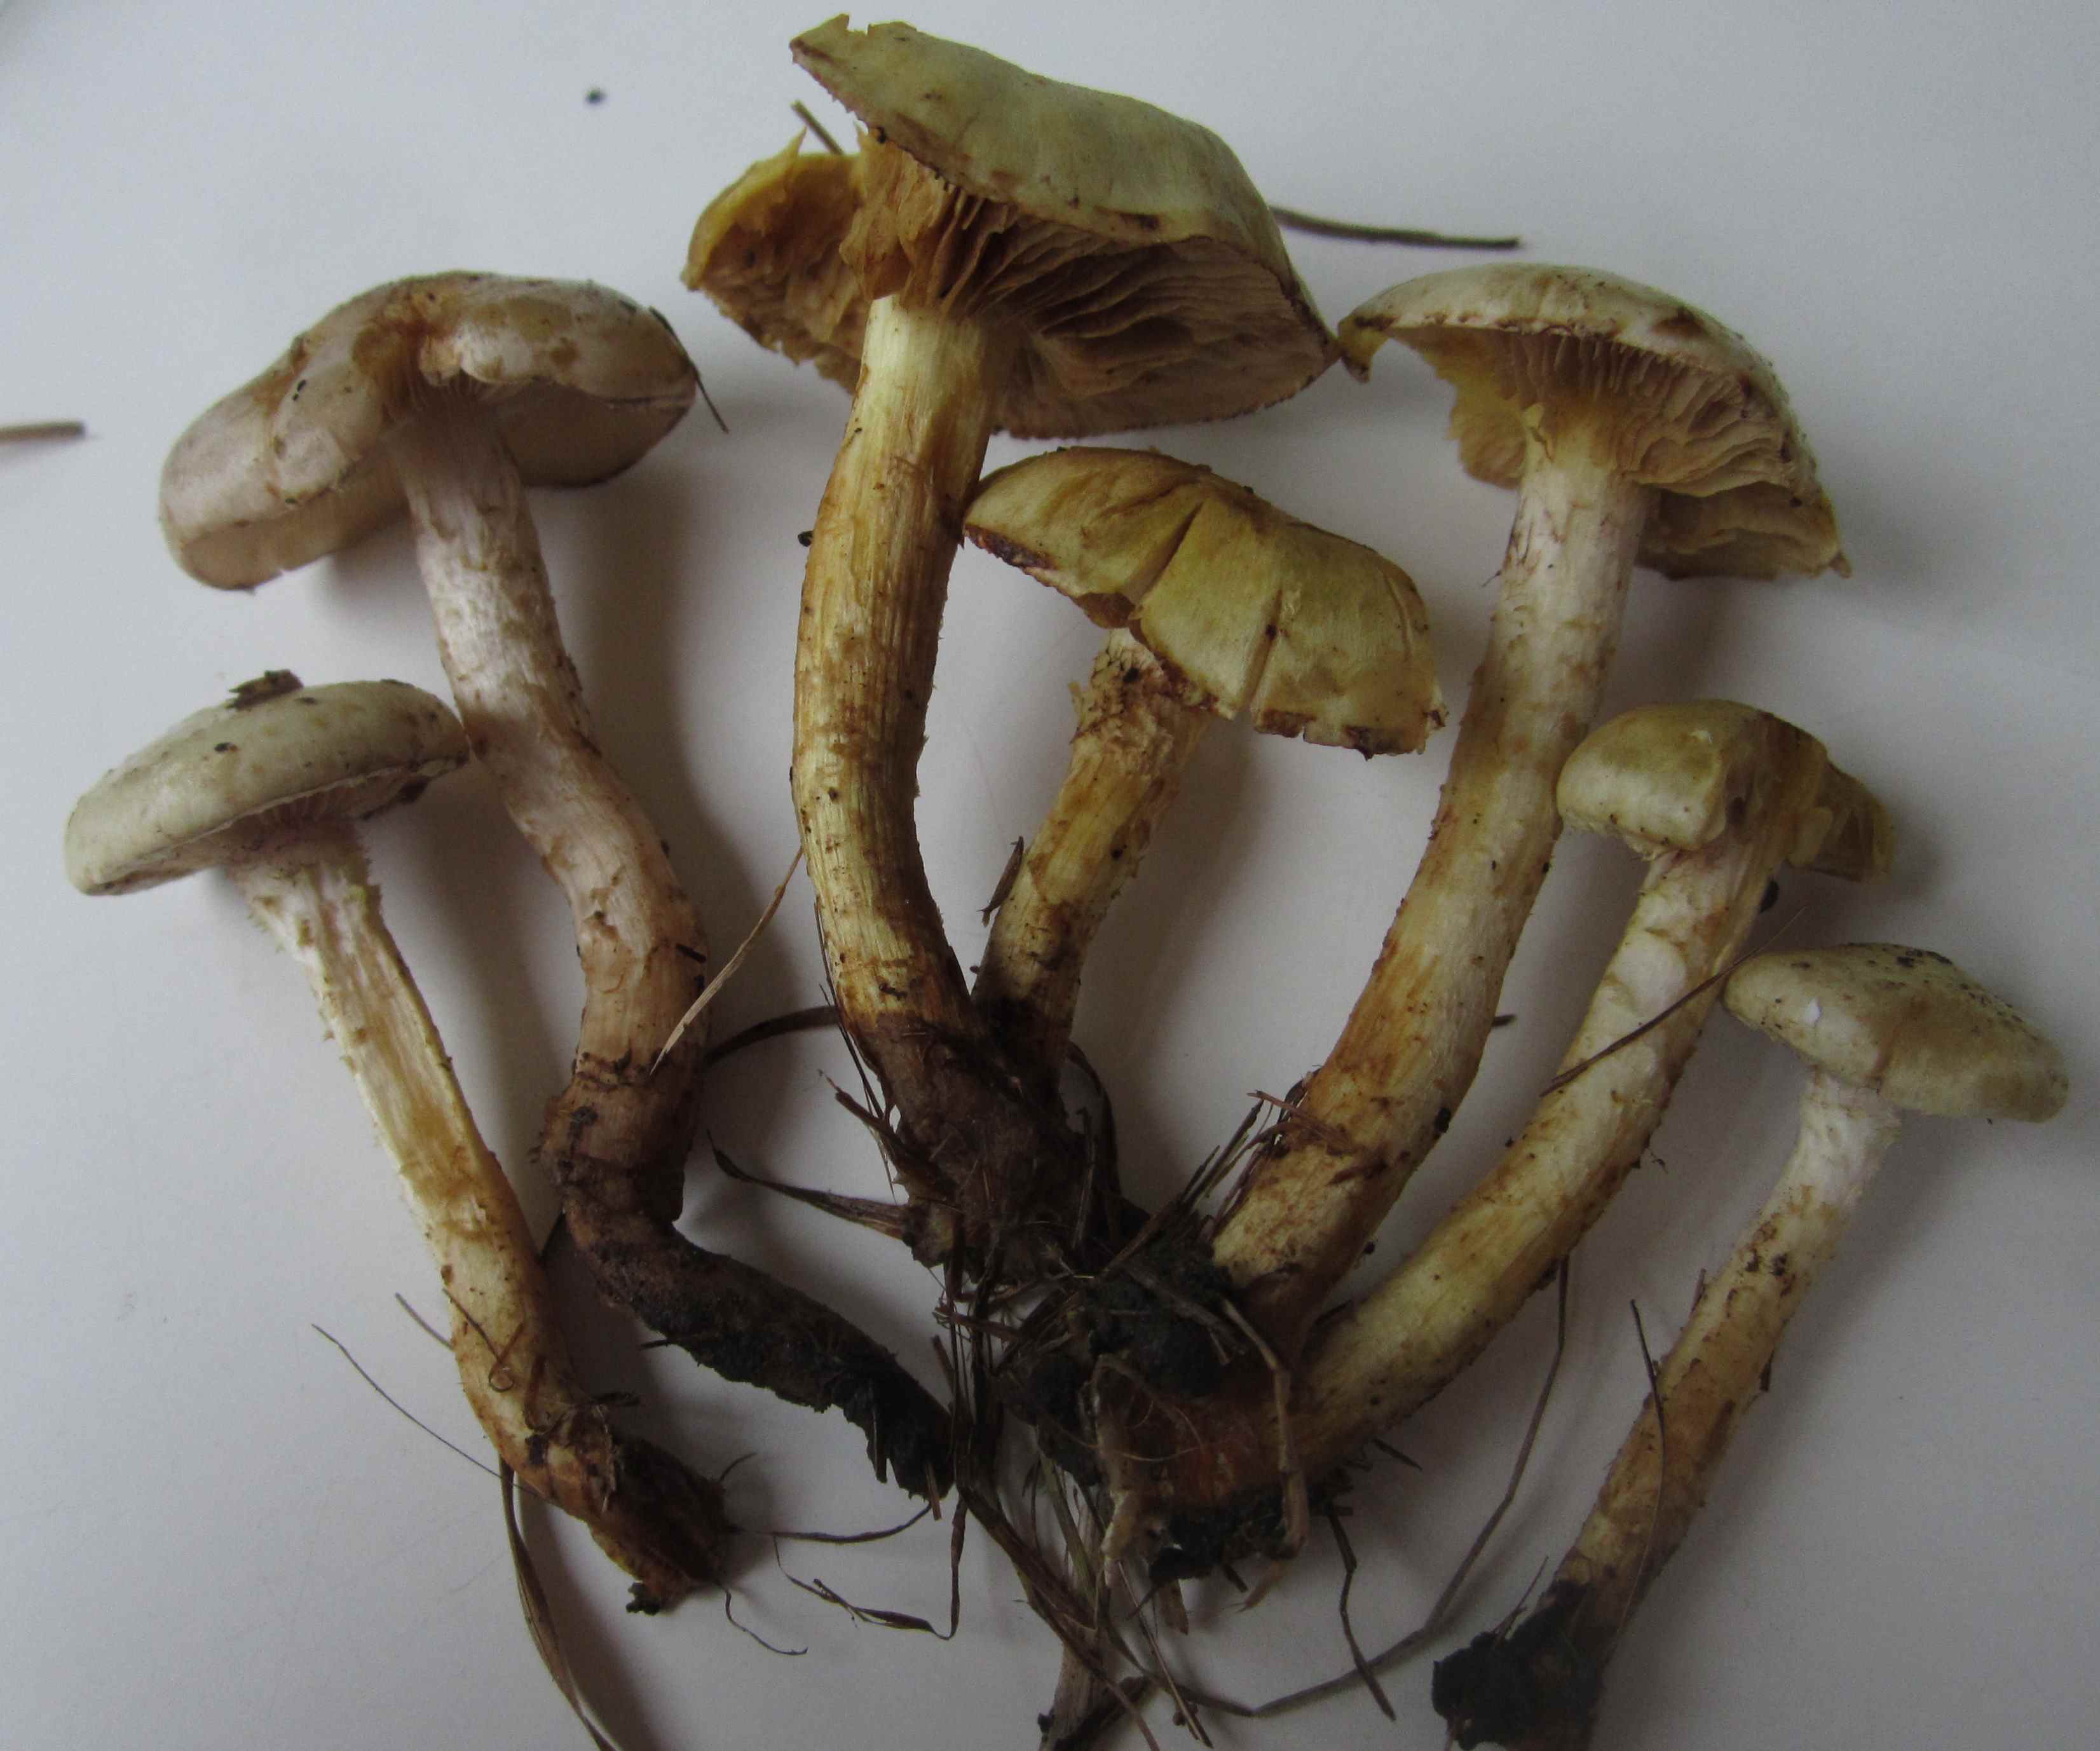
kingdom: Fungi
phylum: Basidiomycota
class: Agaricomycetes
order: Agaricales
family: Strophariaceae
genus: Pholiota
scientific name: Pholiota gummosa
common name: grøngul skælhat
